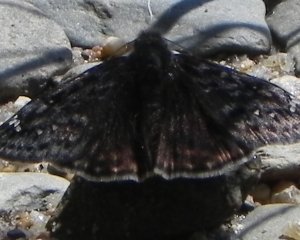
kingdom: Animalia
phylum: Arthropoda
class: Insecta
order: Lepidoptera
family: Hesperiidae
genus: Gesta
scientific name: Gesta
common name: Juvenal's Duskywing
